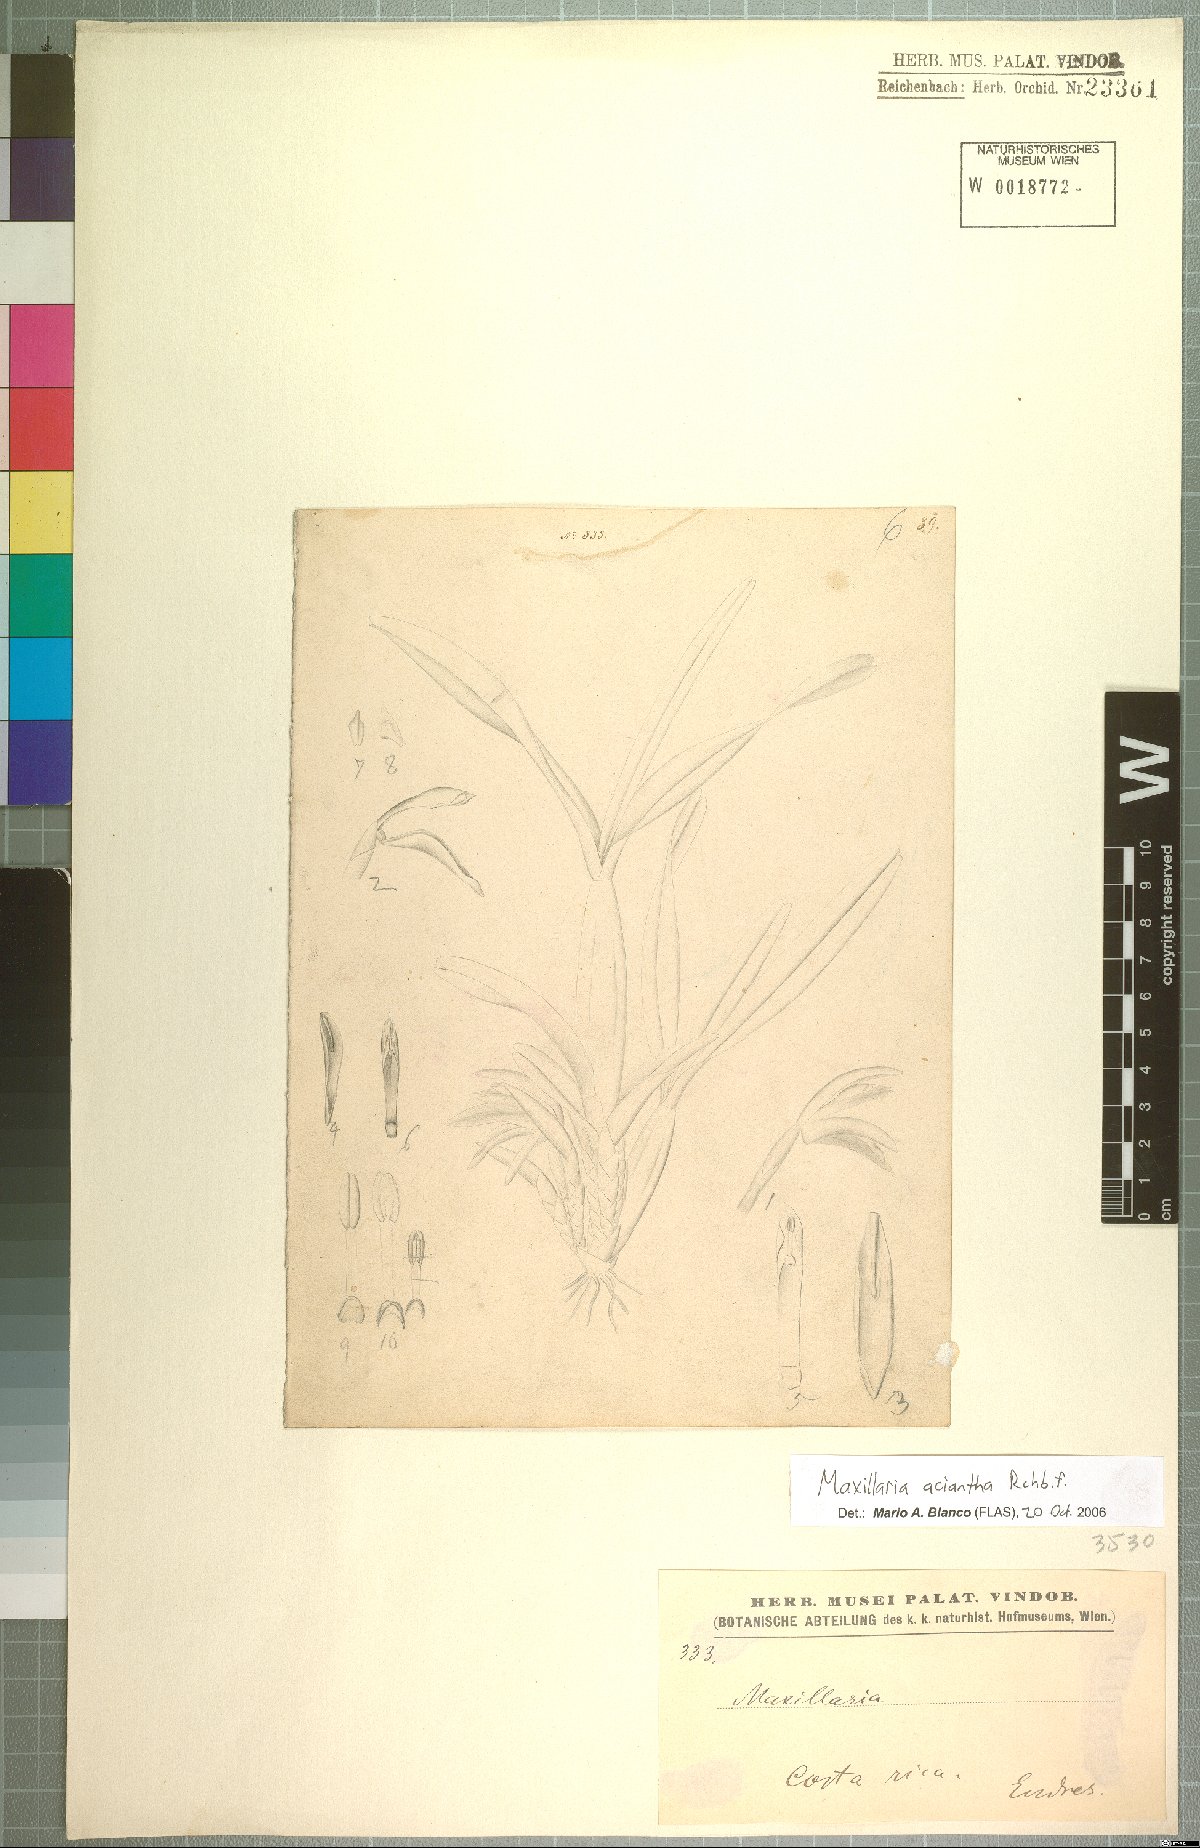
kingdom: Plantae
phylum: Tracheophyta
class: Liliopsida
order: Asparagales
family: Orchidaceae
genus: Maxillaria
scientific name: Maxillaria aciantha
